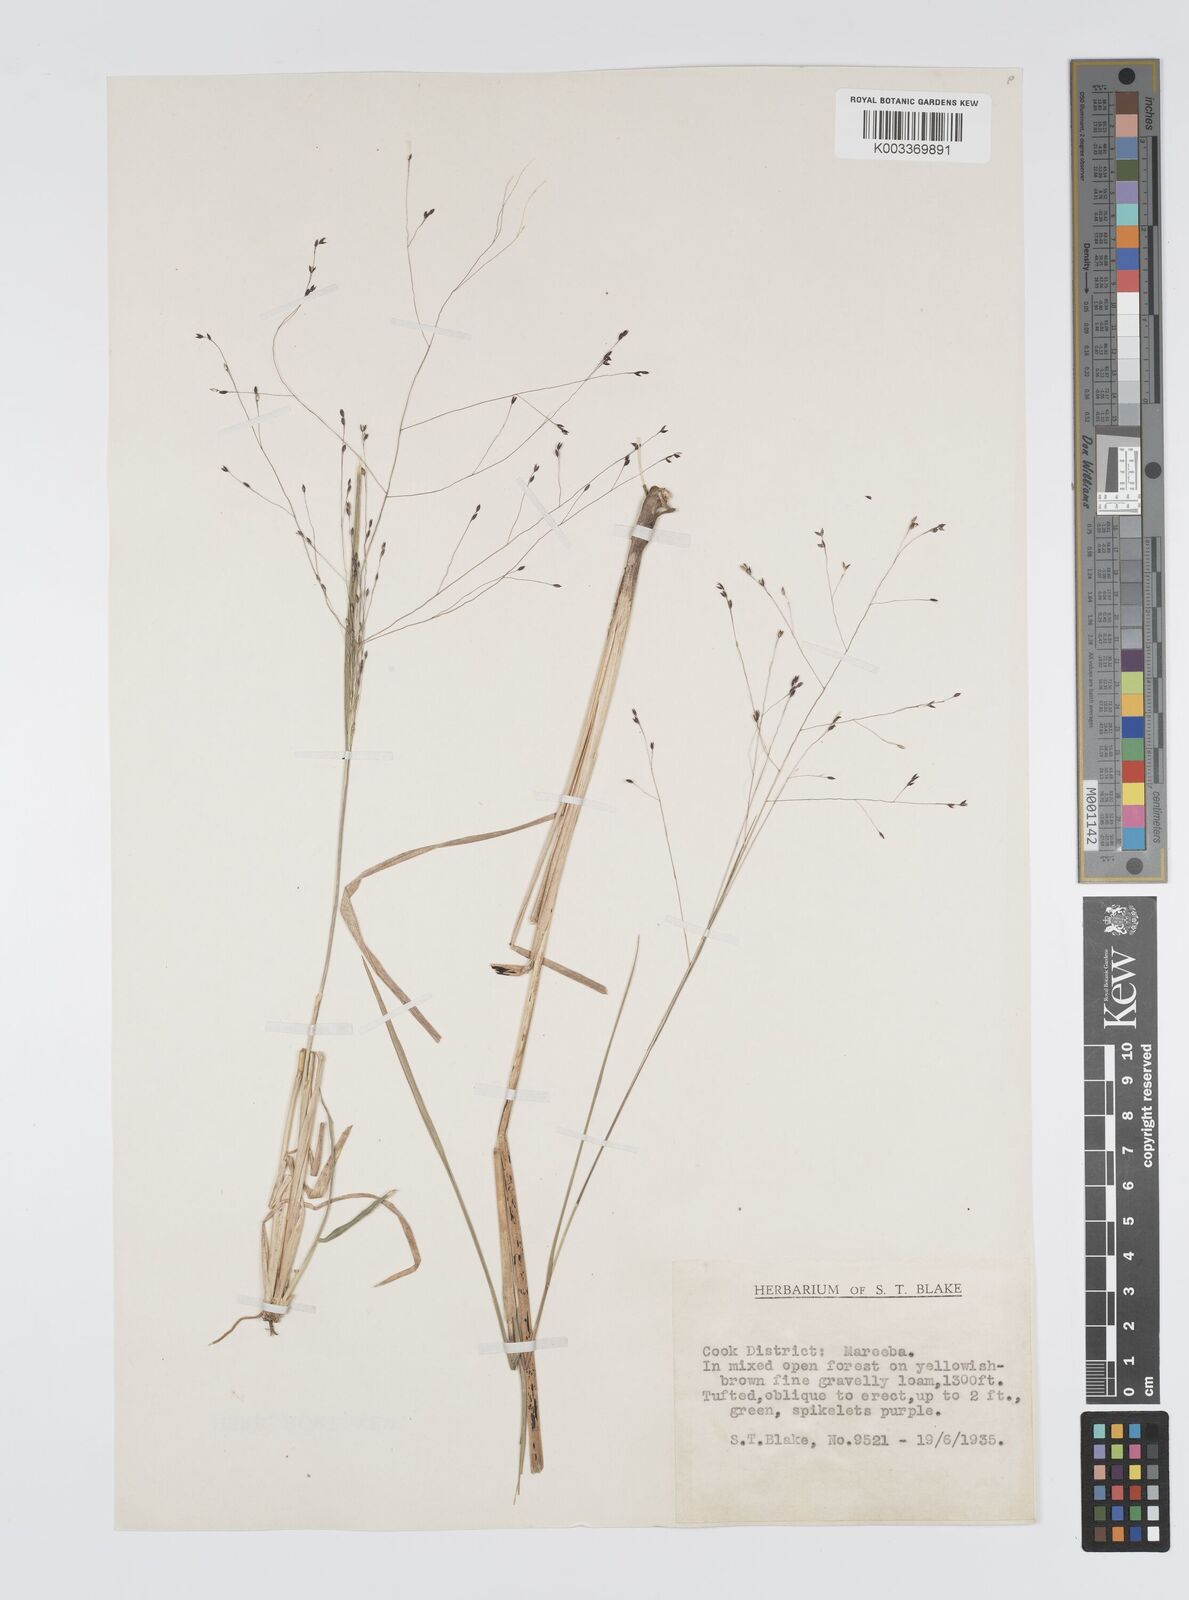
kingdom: Plantae
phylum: Tracheophyta
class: Liliopsida
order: Poales
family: Poaceae
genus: Panicum
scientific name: Panicum mitchellii
